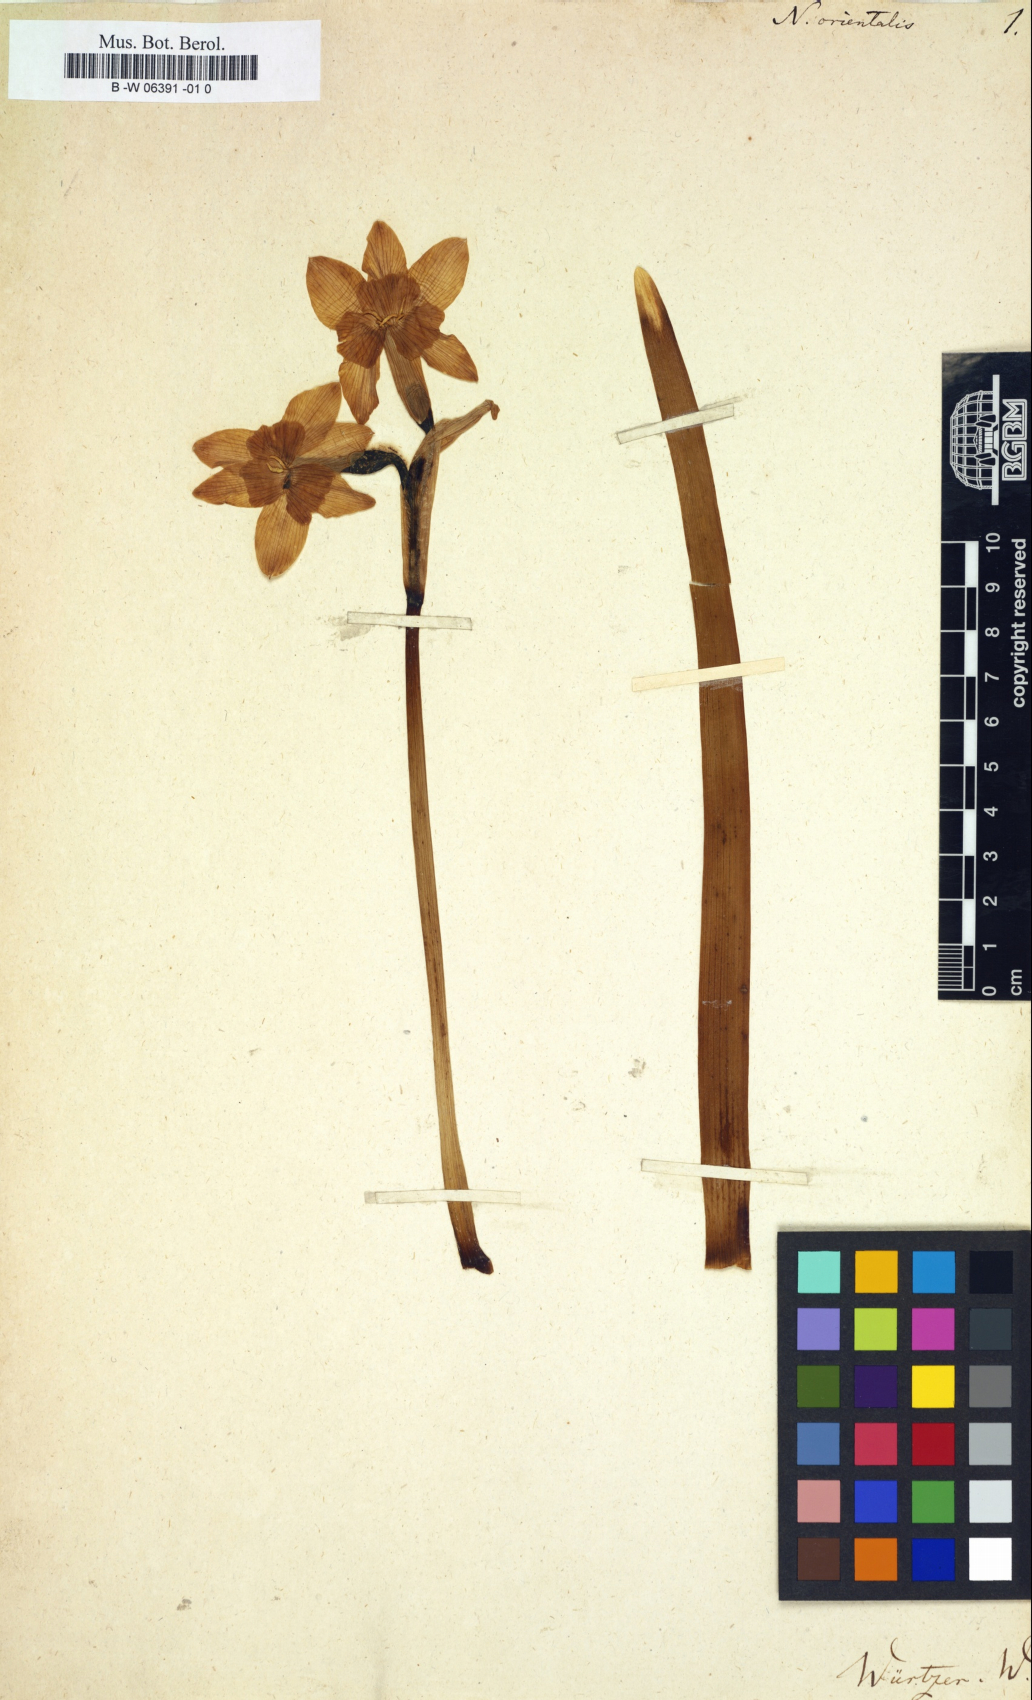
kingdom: Plantae
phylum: Tracheophyta
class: Liliopsida
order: Asparagales
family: Amaryllidaceae
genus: Narcissus
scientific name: Narcissus orientalis
